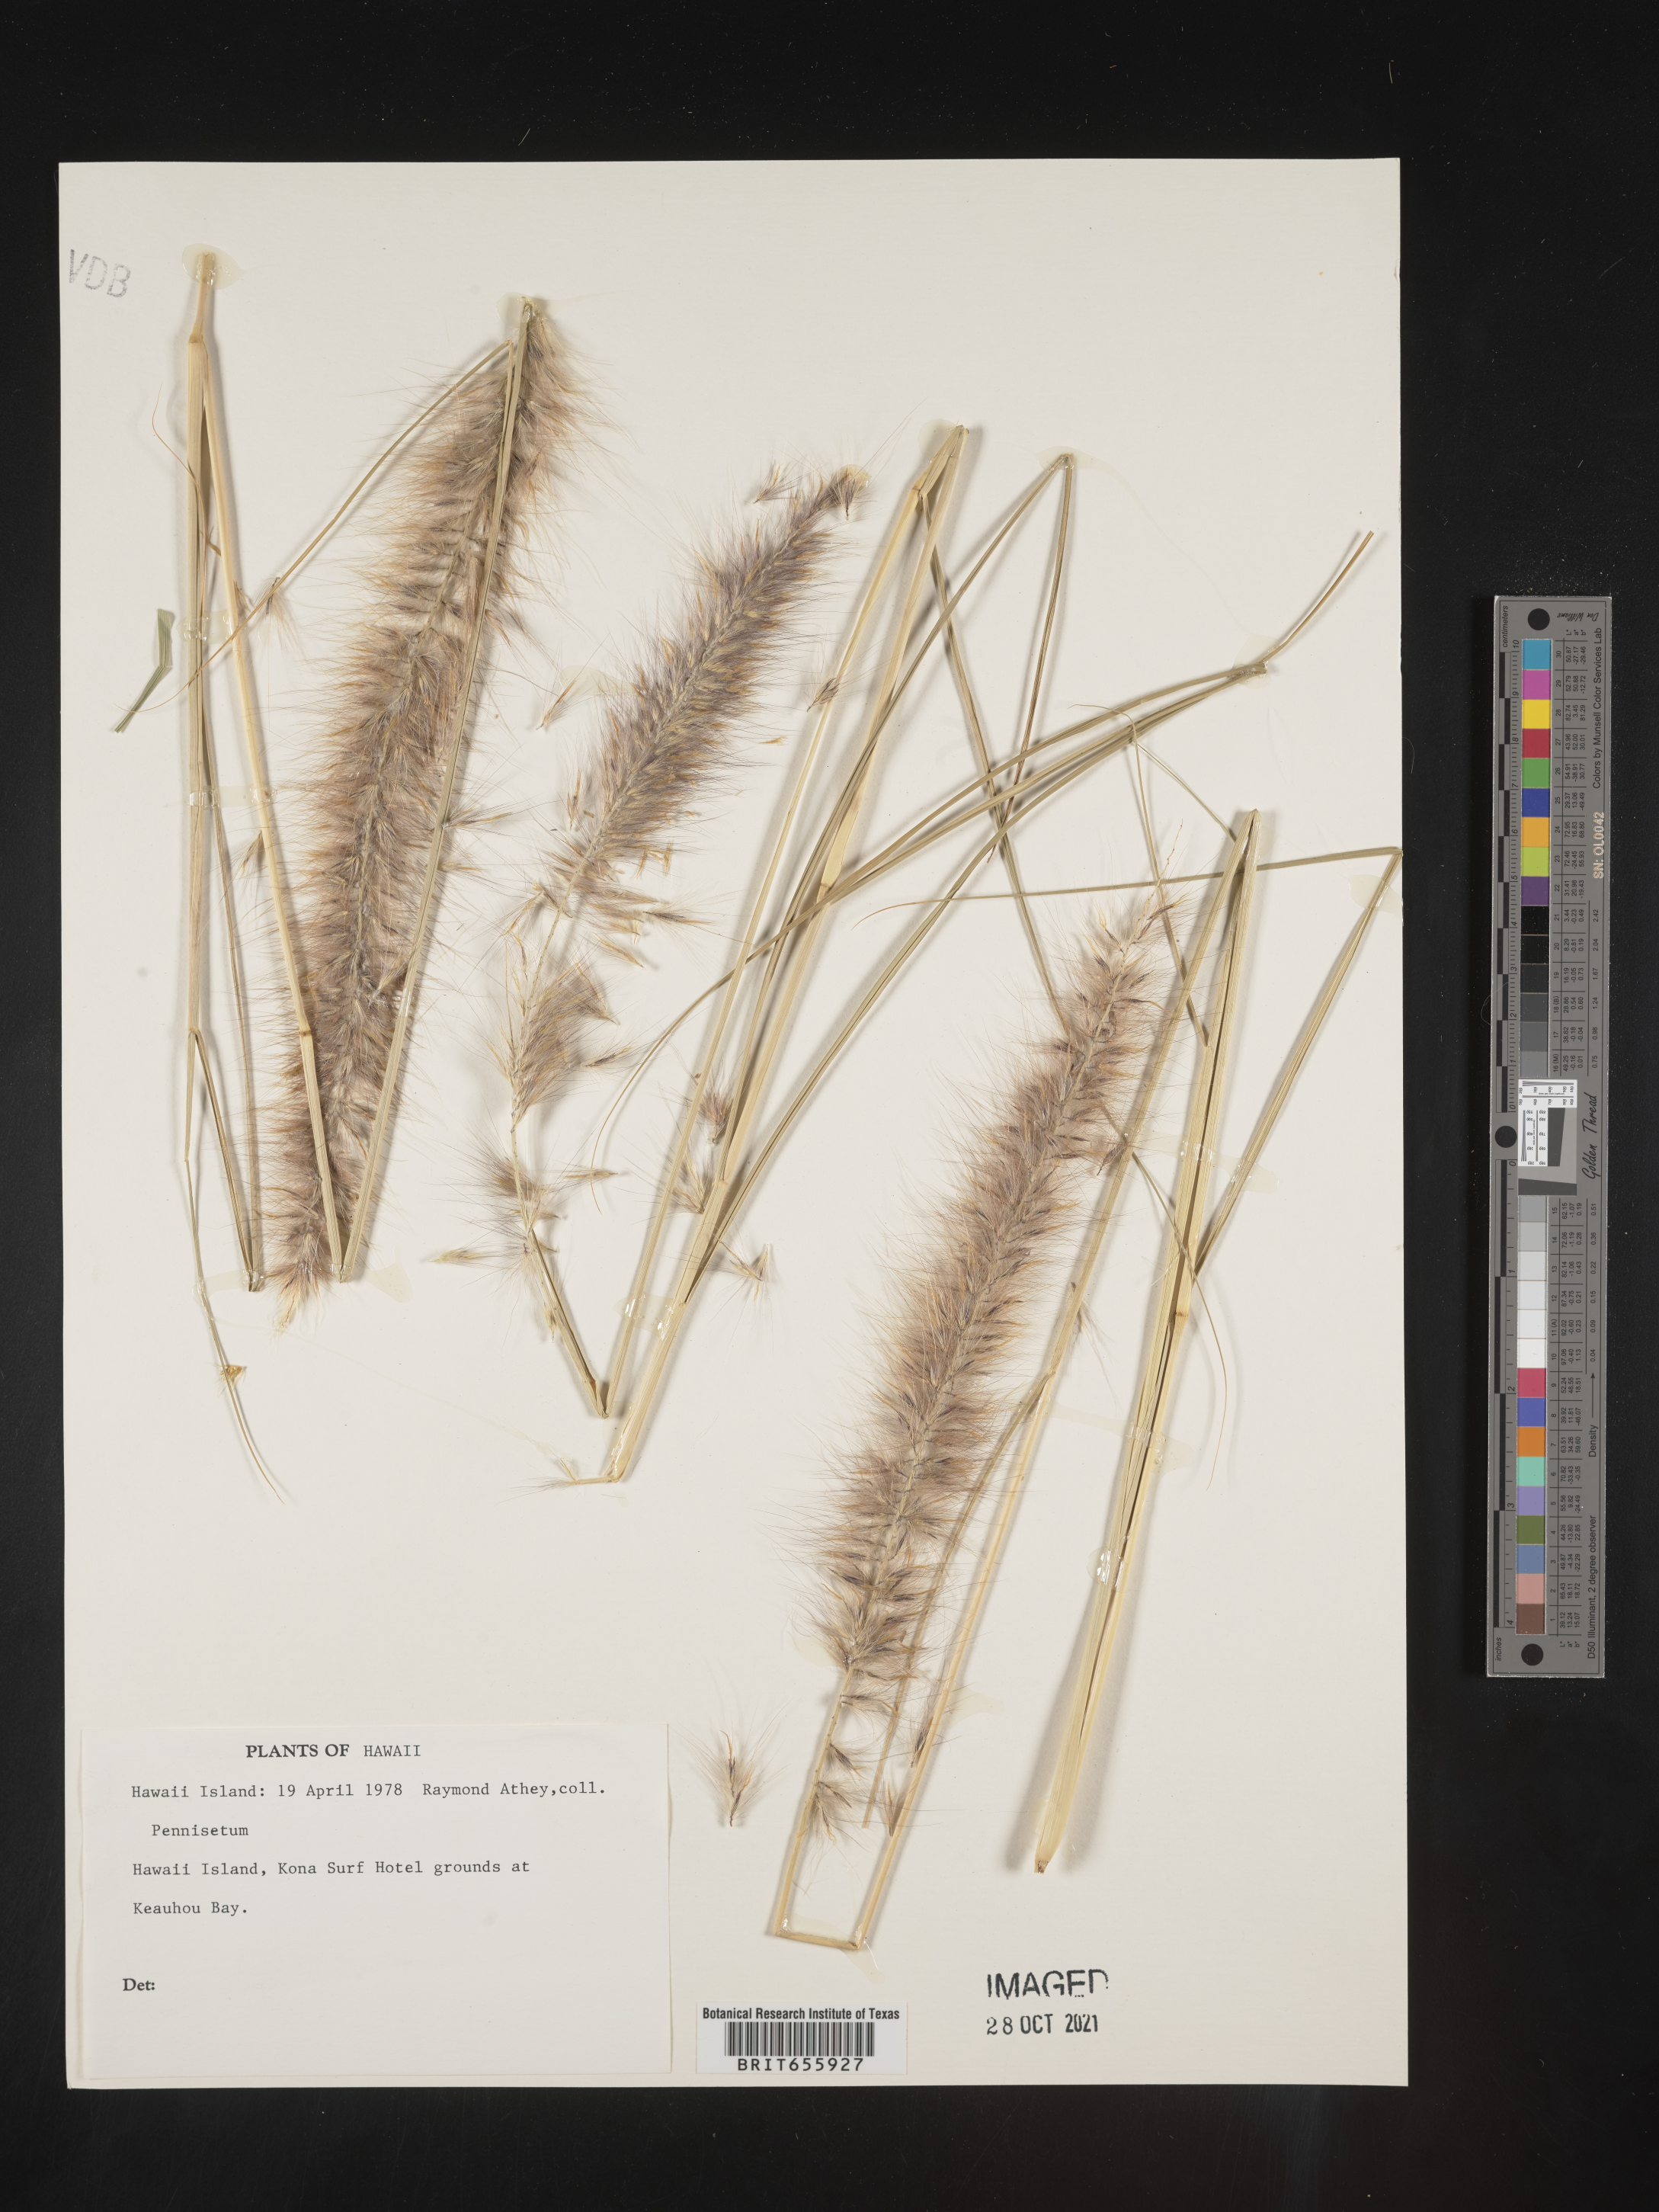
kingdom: Plantae
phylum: Tracheophyta
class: Liliopsida
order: Poales
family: Poaceae
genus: Cenchrus
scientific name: Cenchrus Pennisetum spec
